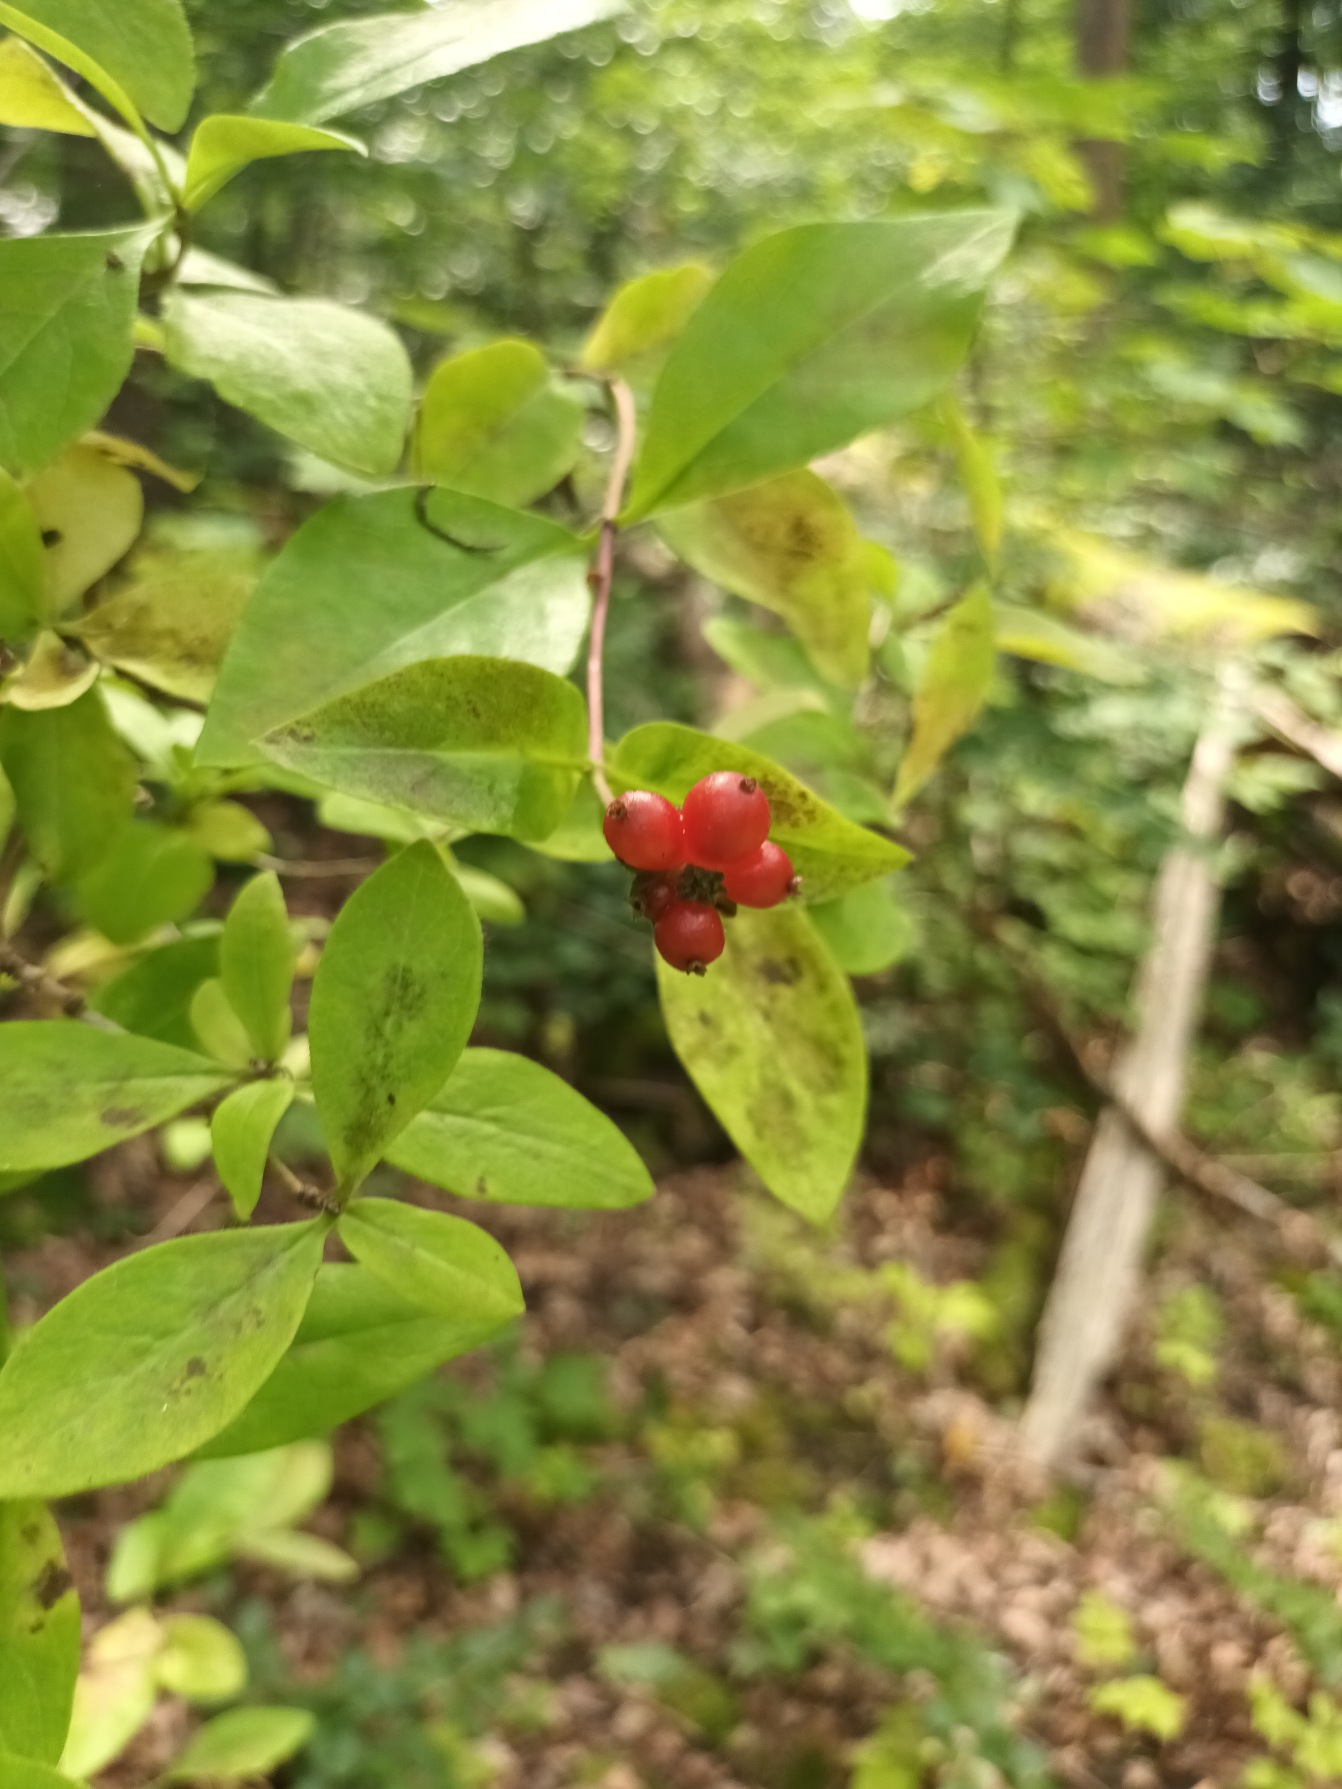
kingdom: Plantae
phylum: Tracheophyta
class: Magnoliopsida
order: Dipsacales
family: Caprifoliaceae
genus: Lonicera
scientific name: Lonicera periclymenum
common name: Almindelig gedeblad
